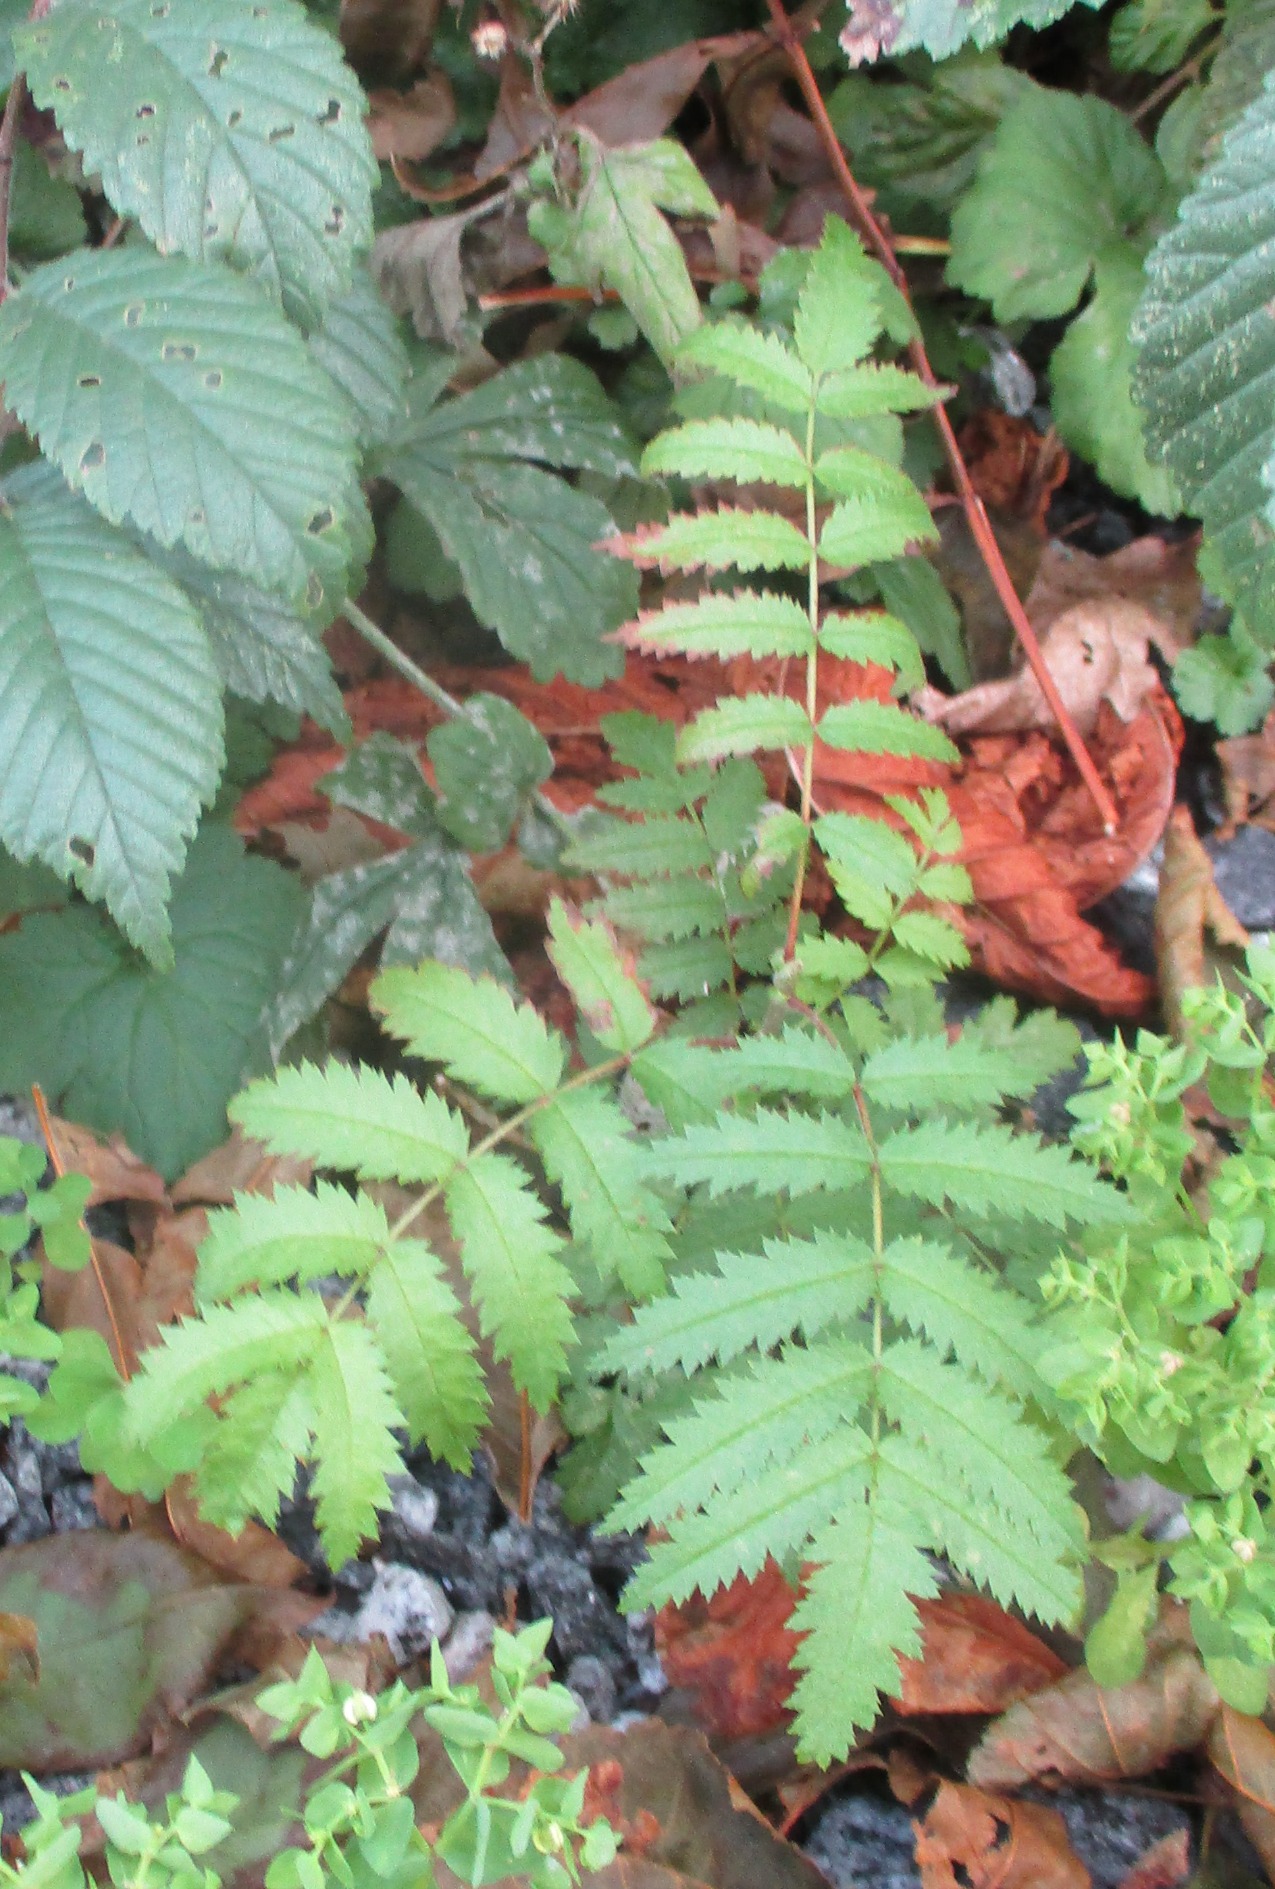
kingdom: Plantae
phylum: Tracheophyta
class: Magnoliopsida
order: Rosales
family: Rosaceae
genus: Sorbus
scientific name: Sorbus aucuparia
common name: Almindelig røn
